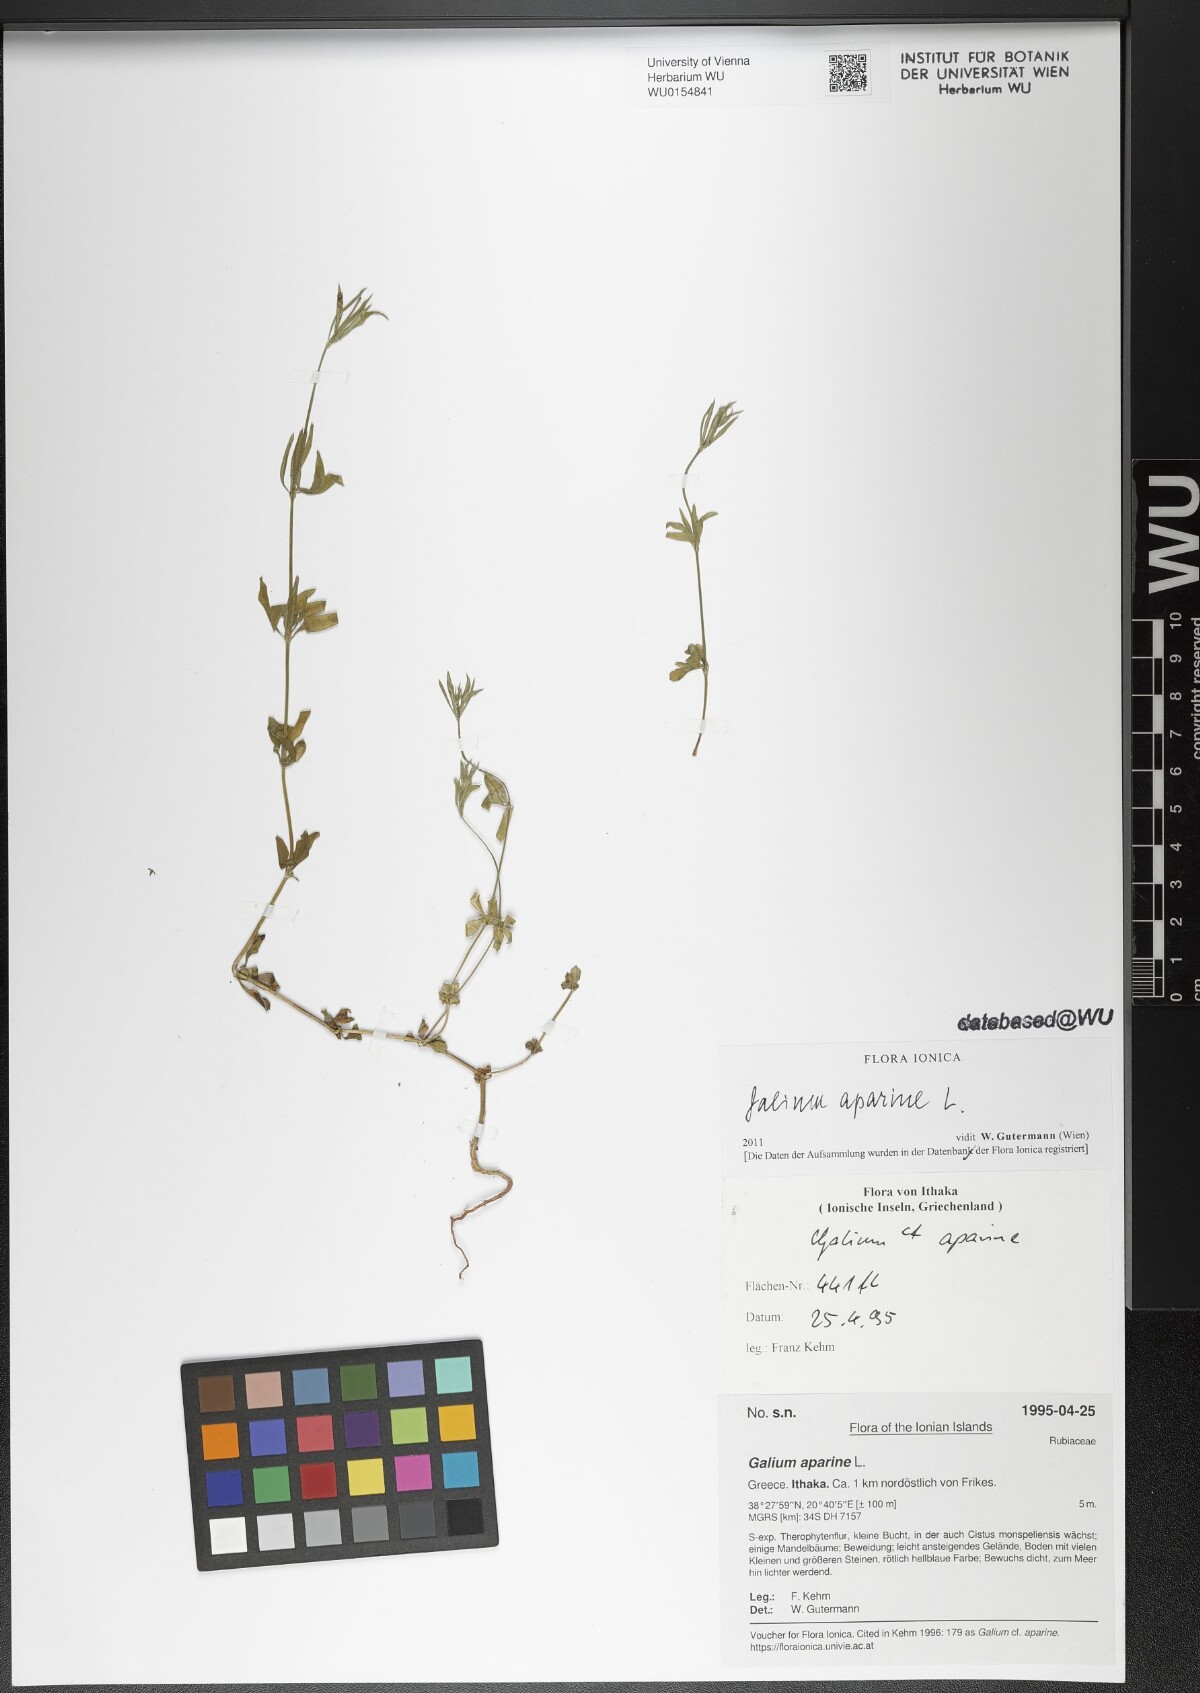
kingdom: Plantae
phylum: Tracheophyta
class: Magnoliopsida
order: Gentianales
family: Rubiaceae
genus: Galium
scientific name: Galium aparine
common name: Cleavers
